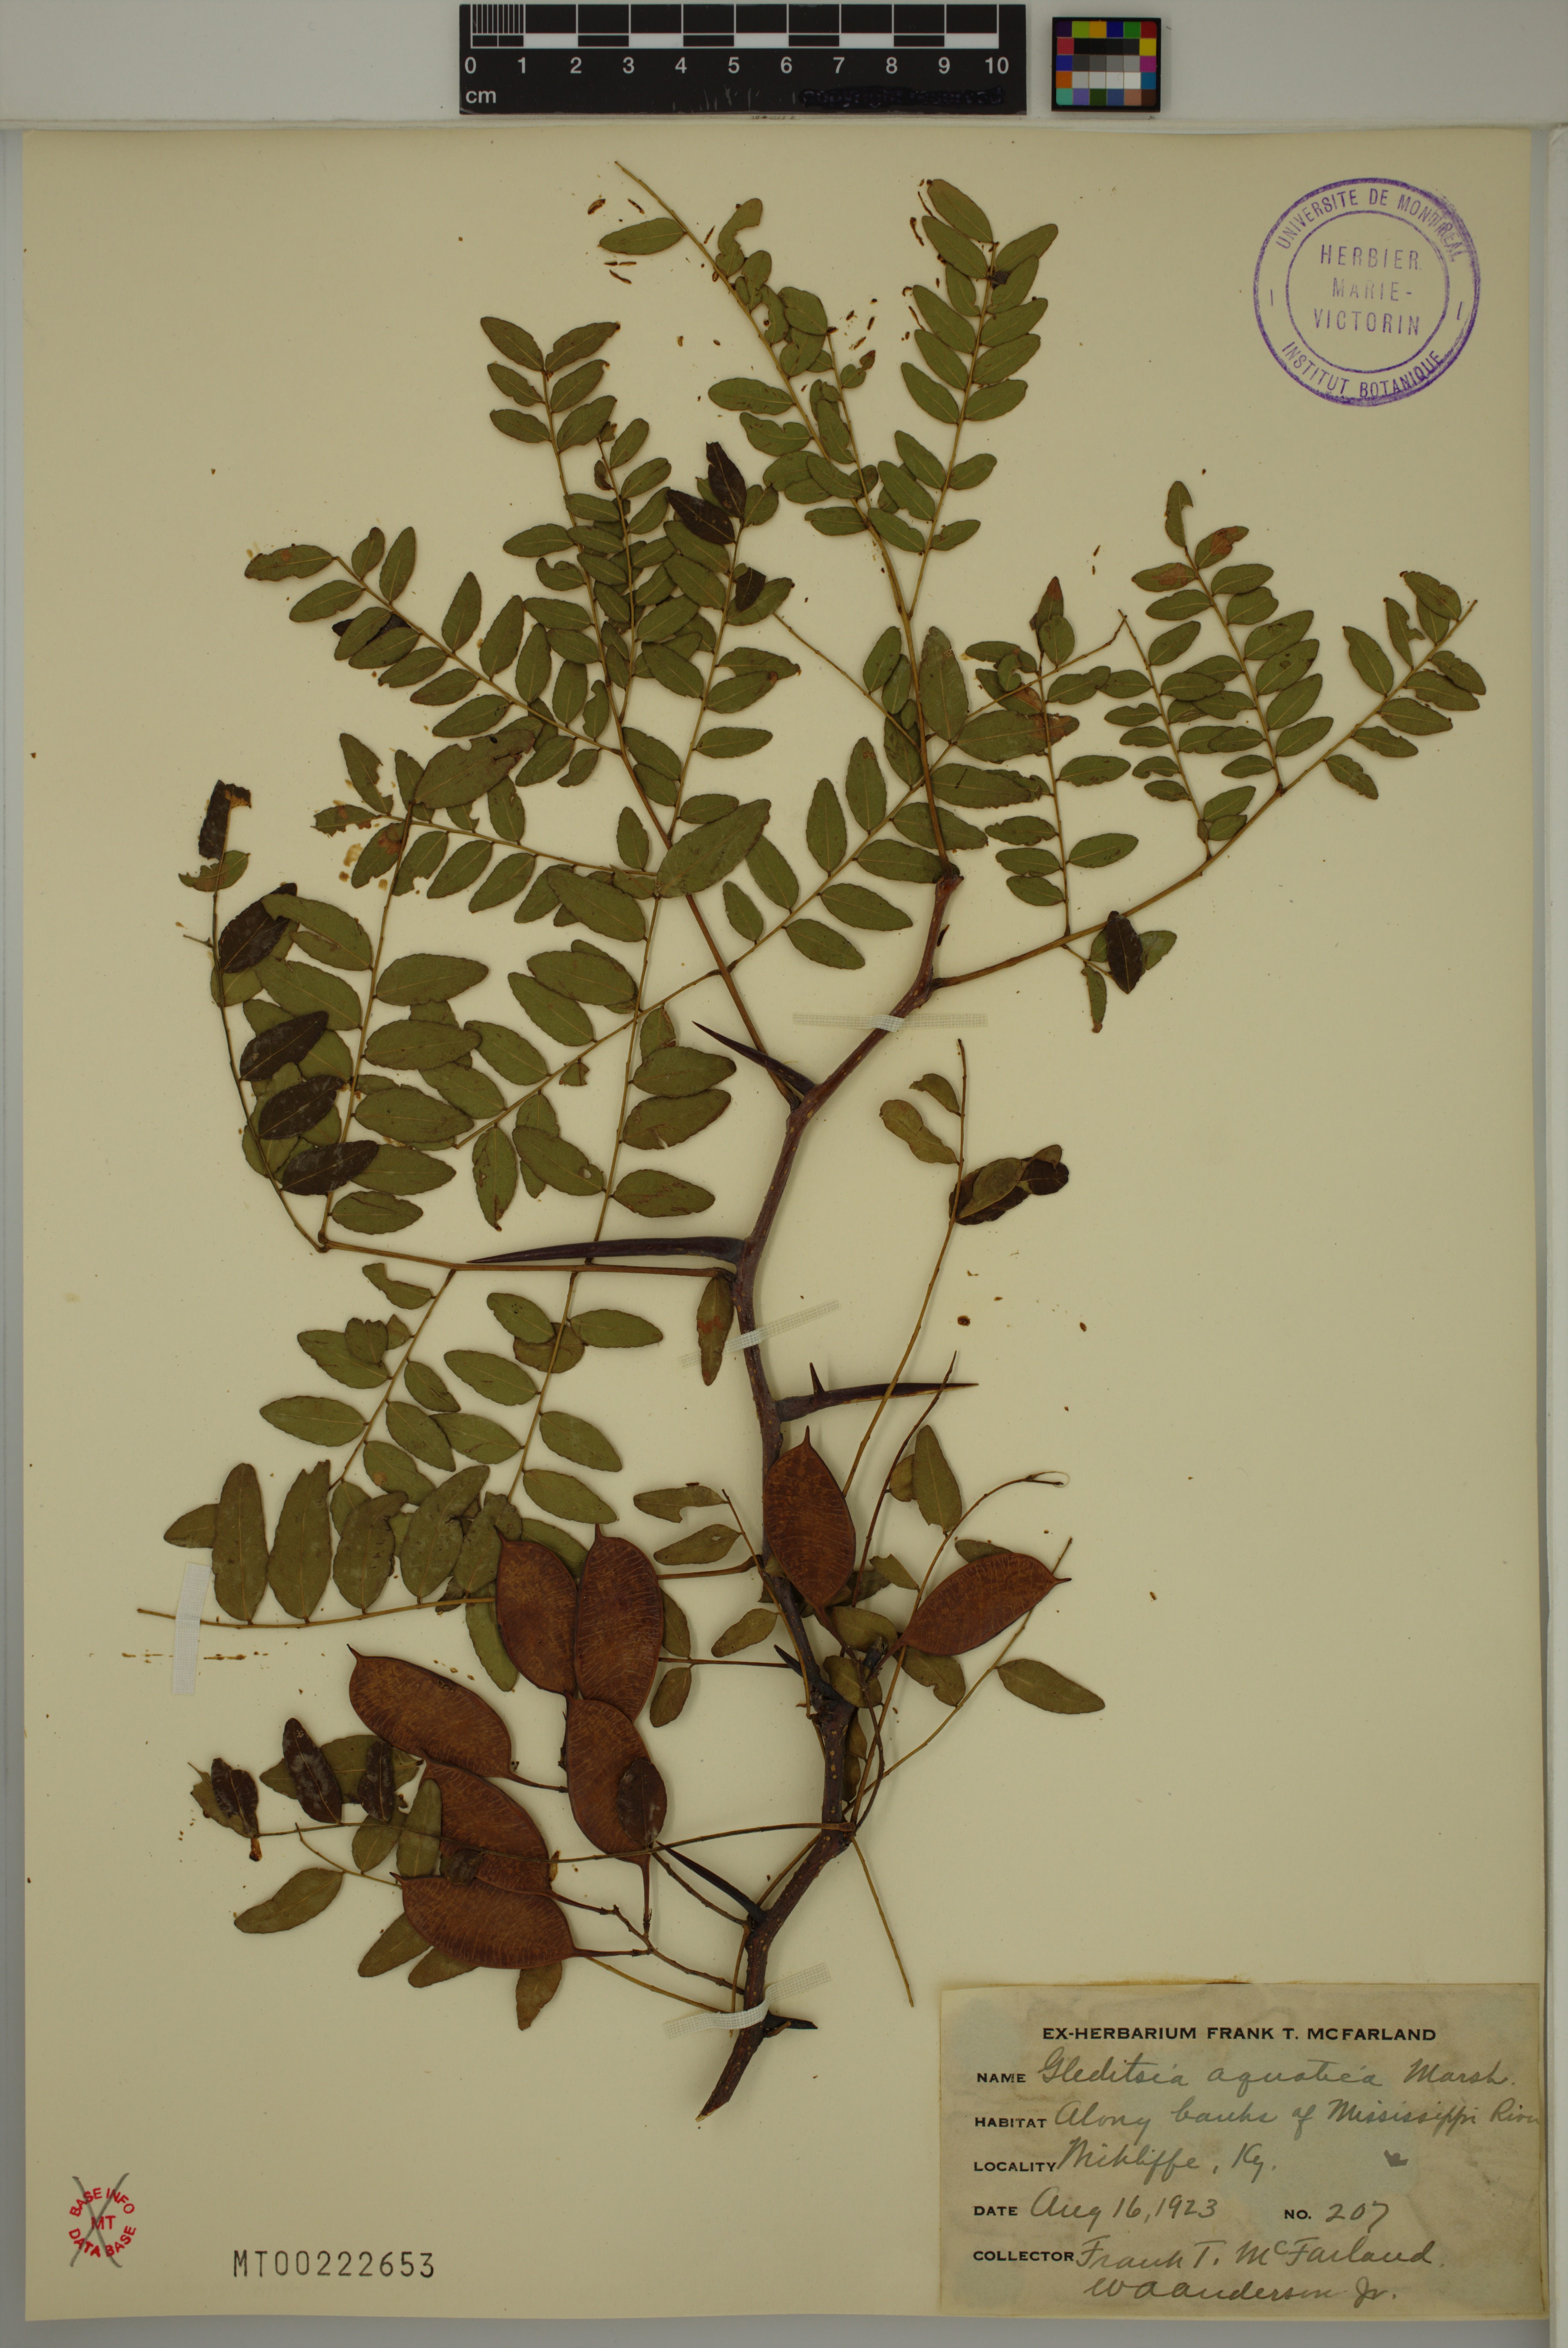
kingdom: Plantae
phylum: Tracheophyta
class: Magnoliopsida
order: Fabales
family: Fabaceae
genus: Gleditsia
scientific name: Gleditsia aquatica
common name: Swamp-locust
